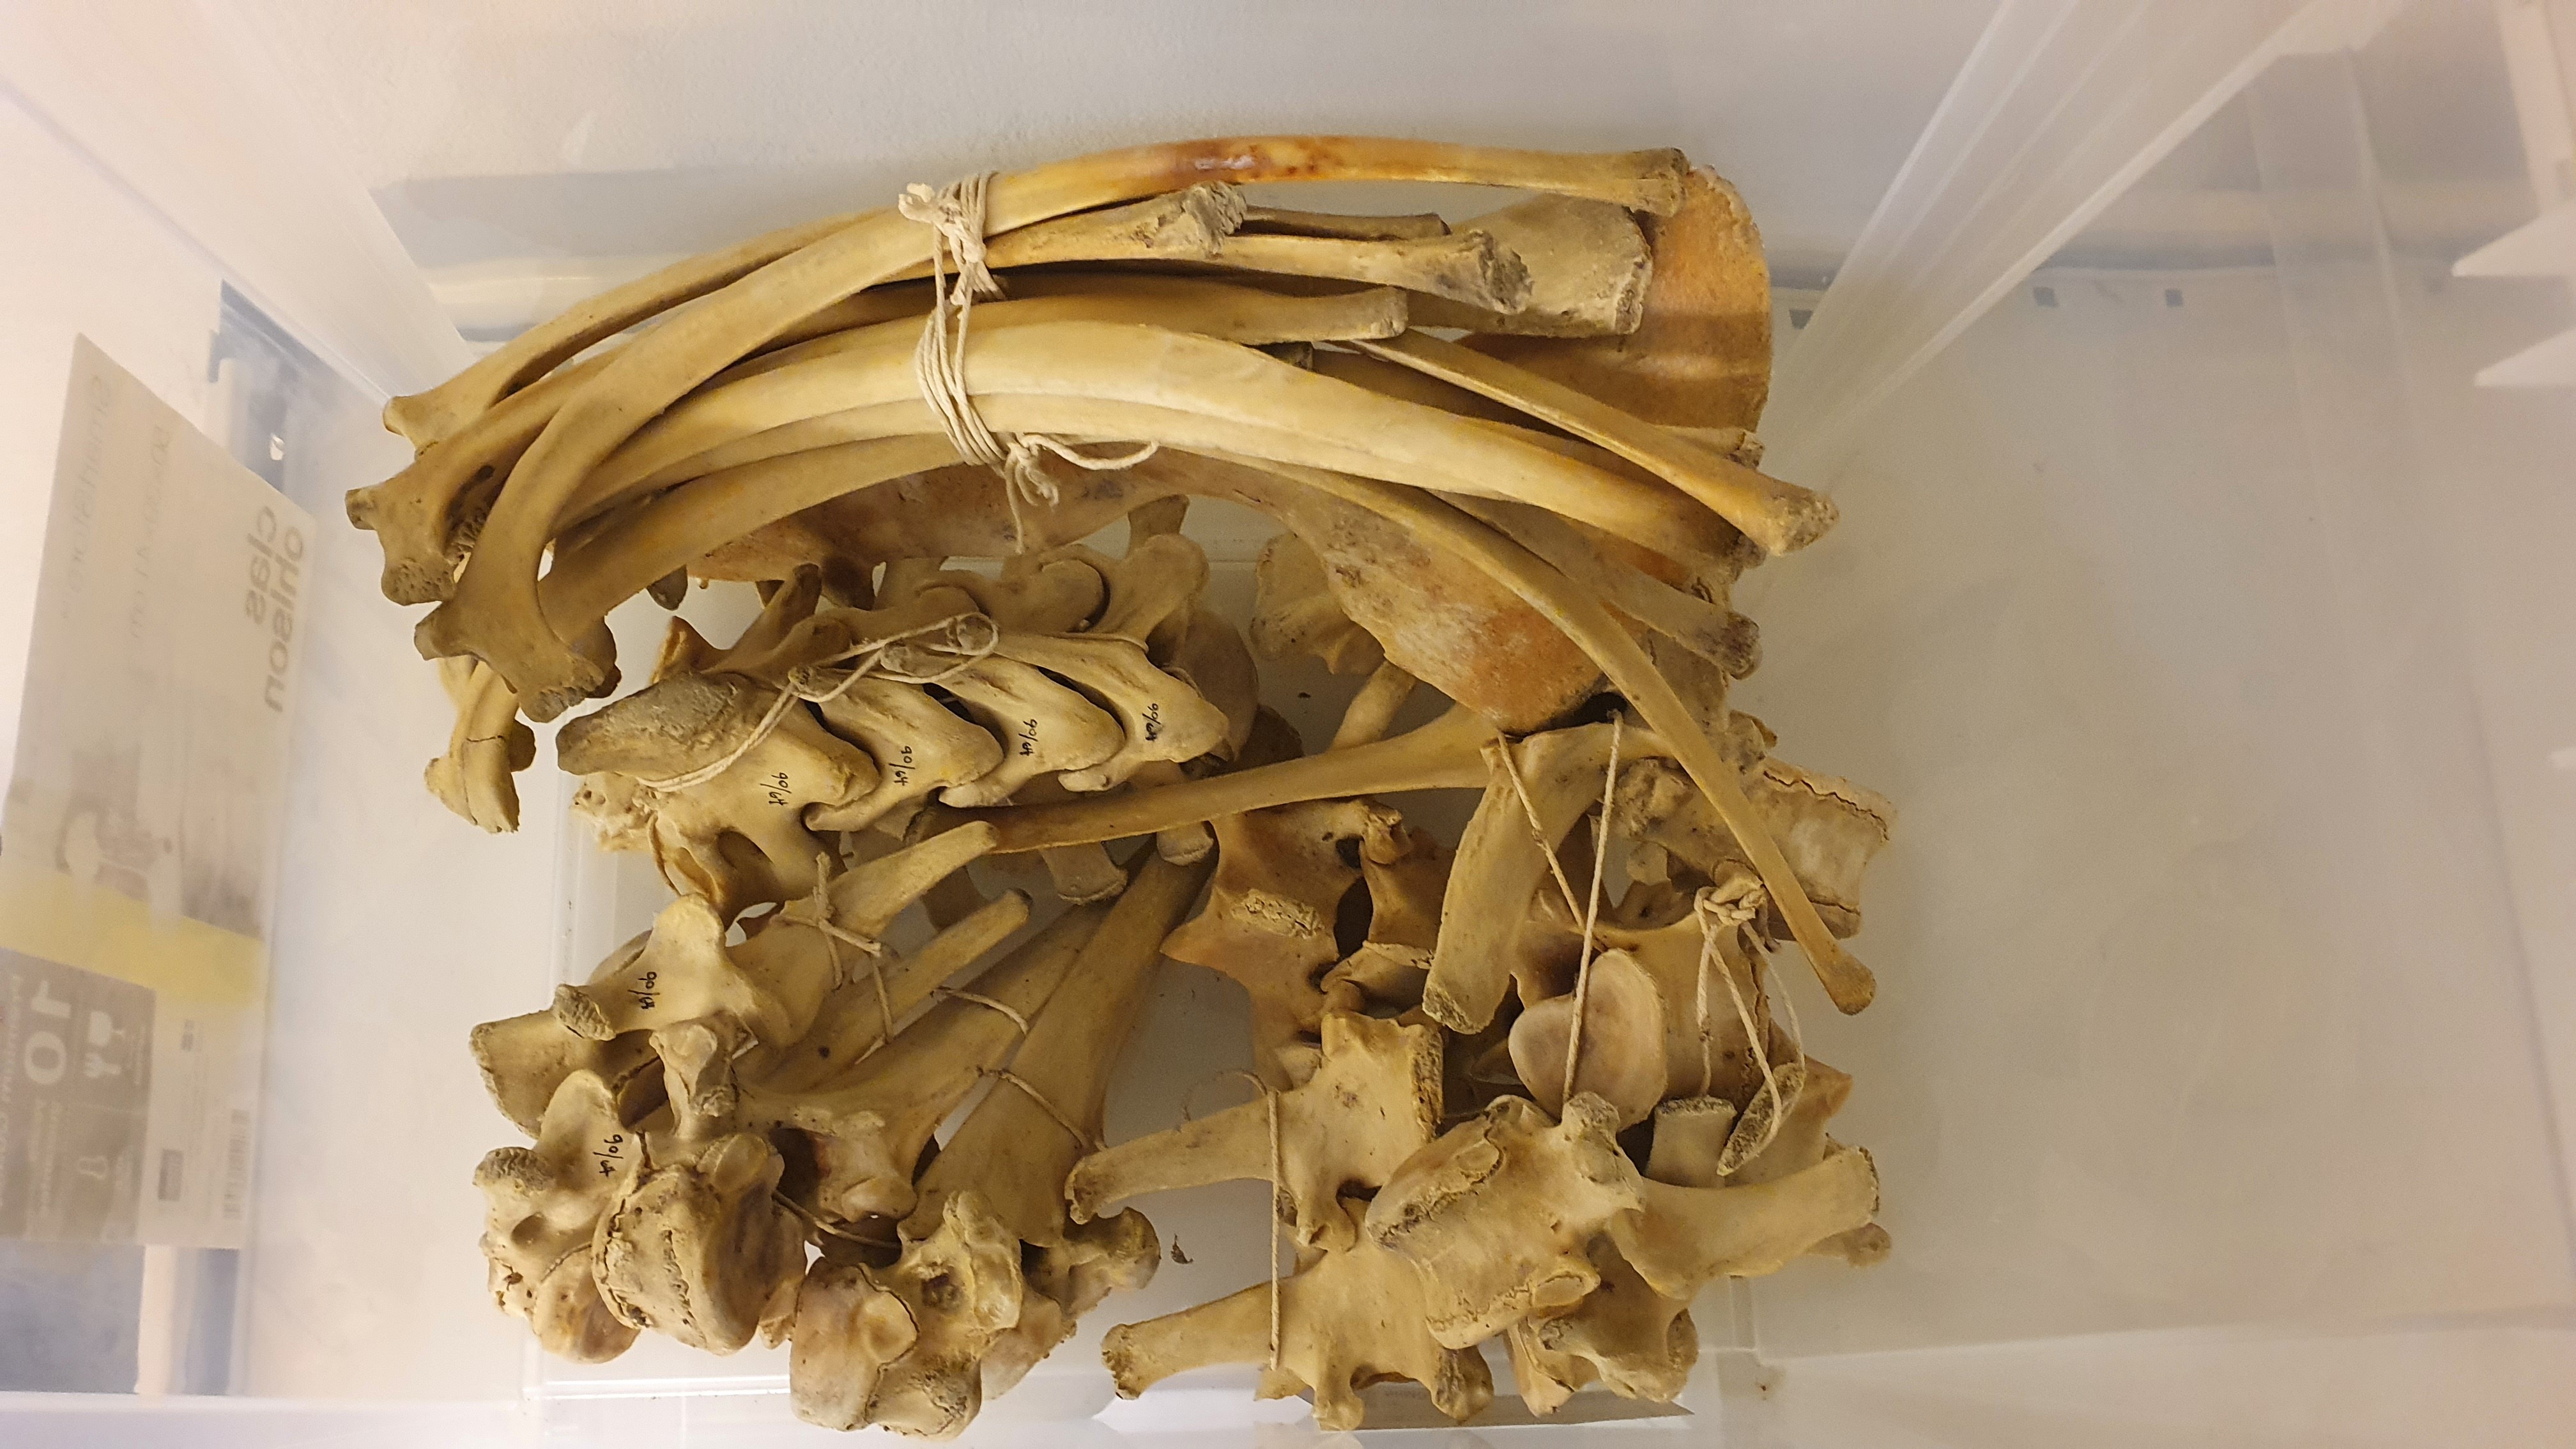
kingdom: Animalia
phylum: Chordata
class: Mammalia
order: Artiodactyla
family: Bovidae
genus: Ovibos
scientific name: Ovibos moschatus
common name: Muskox
